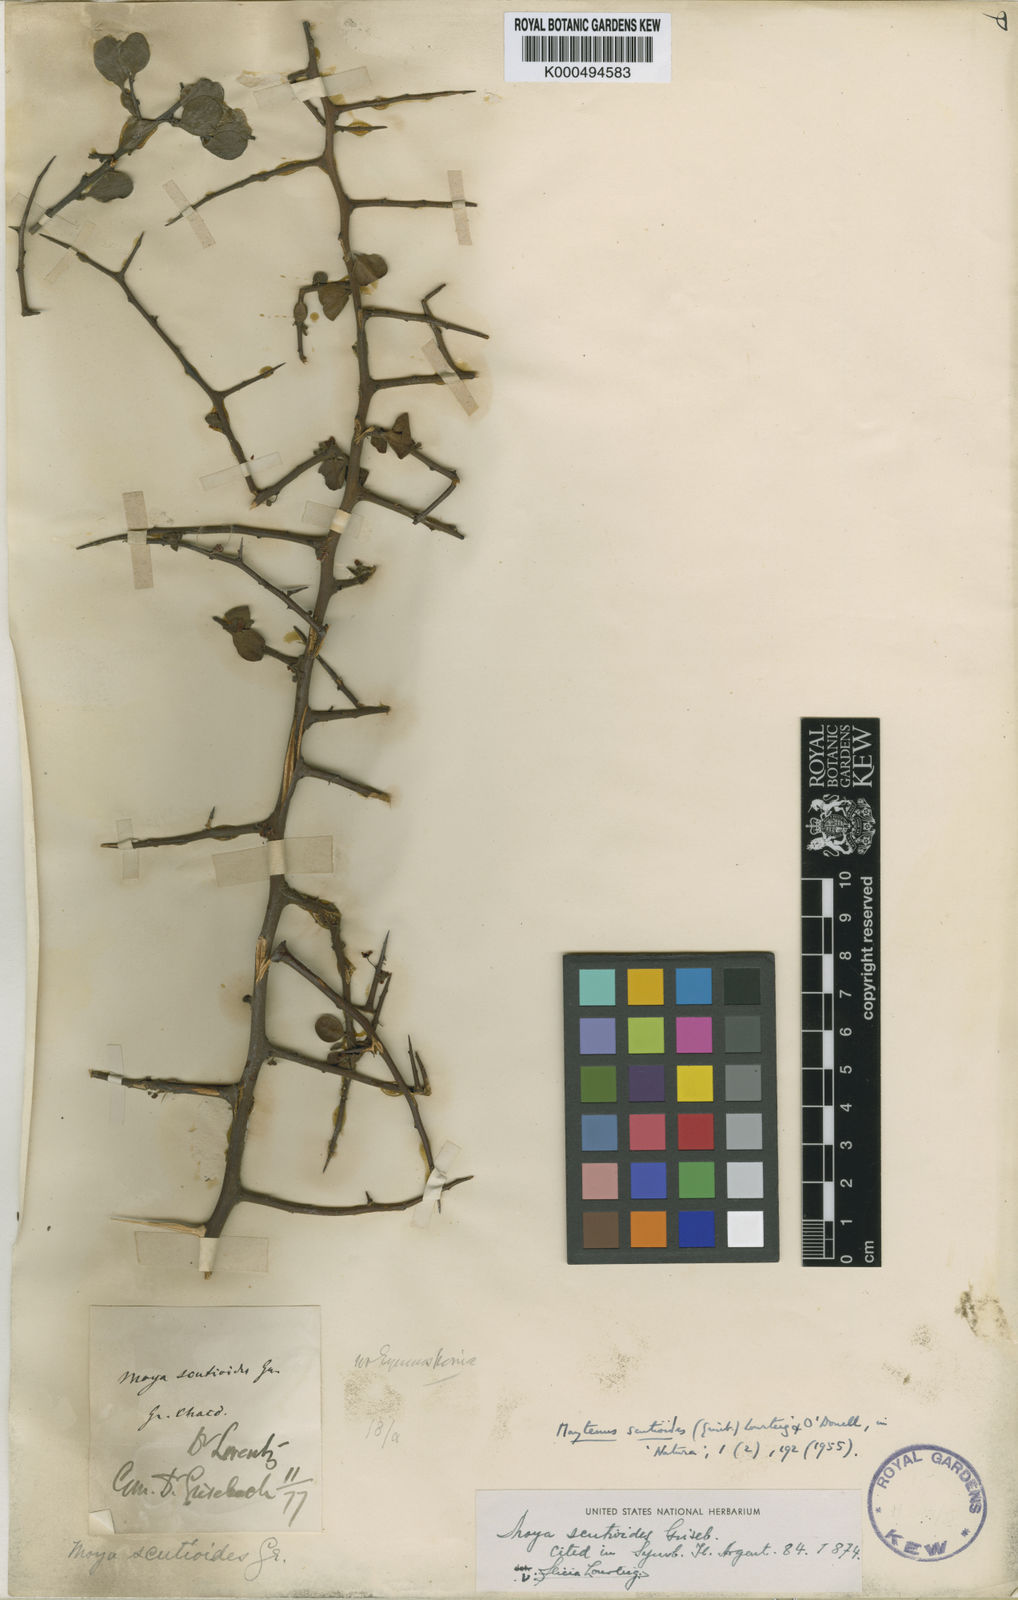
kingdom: Plantae
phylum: Tracheophyta
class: Magnoliopsida
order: Celastrales
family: Celastraceae
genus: Monteverdia
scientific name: Monteverdia spinosa
